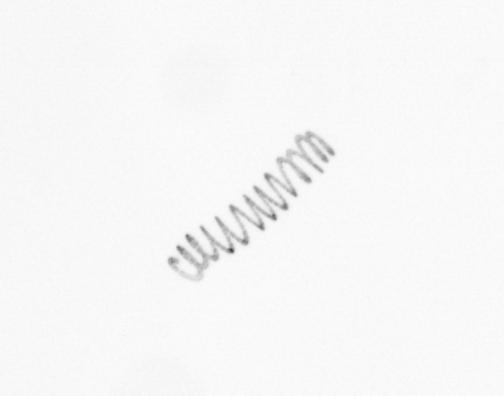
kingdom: Chromista
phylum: Ochrophyta
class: Bacillariophyceae
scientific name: Bacillariophyceae
